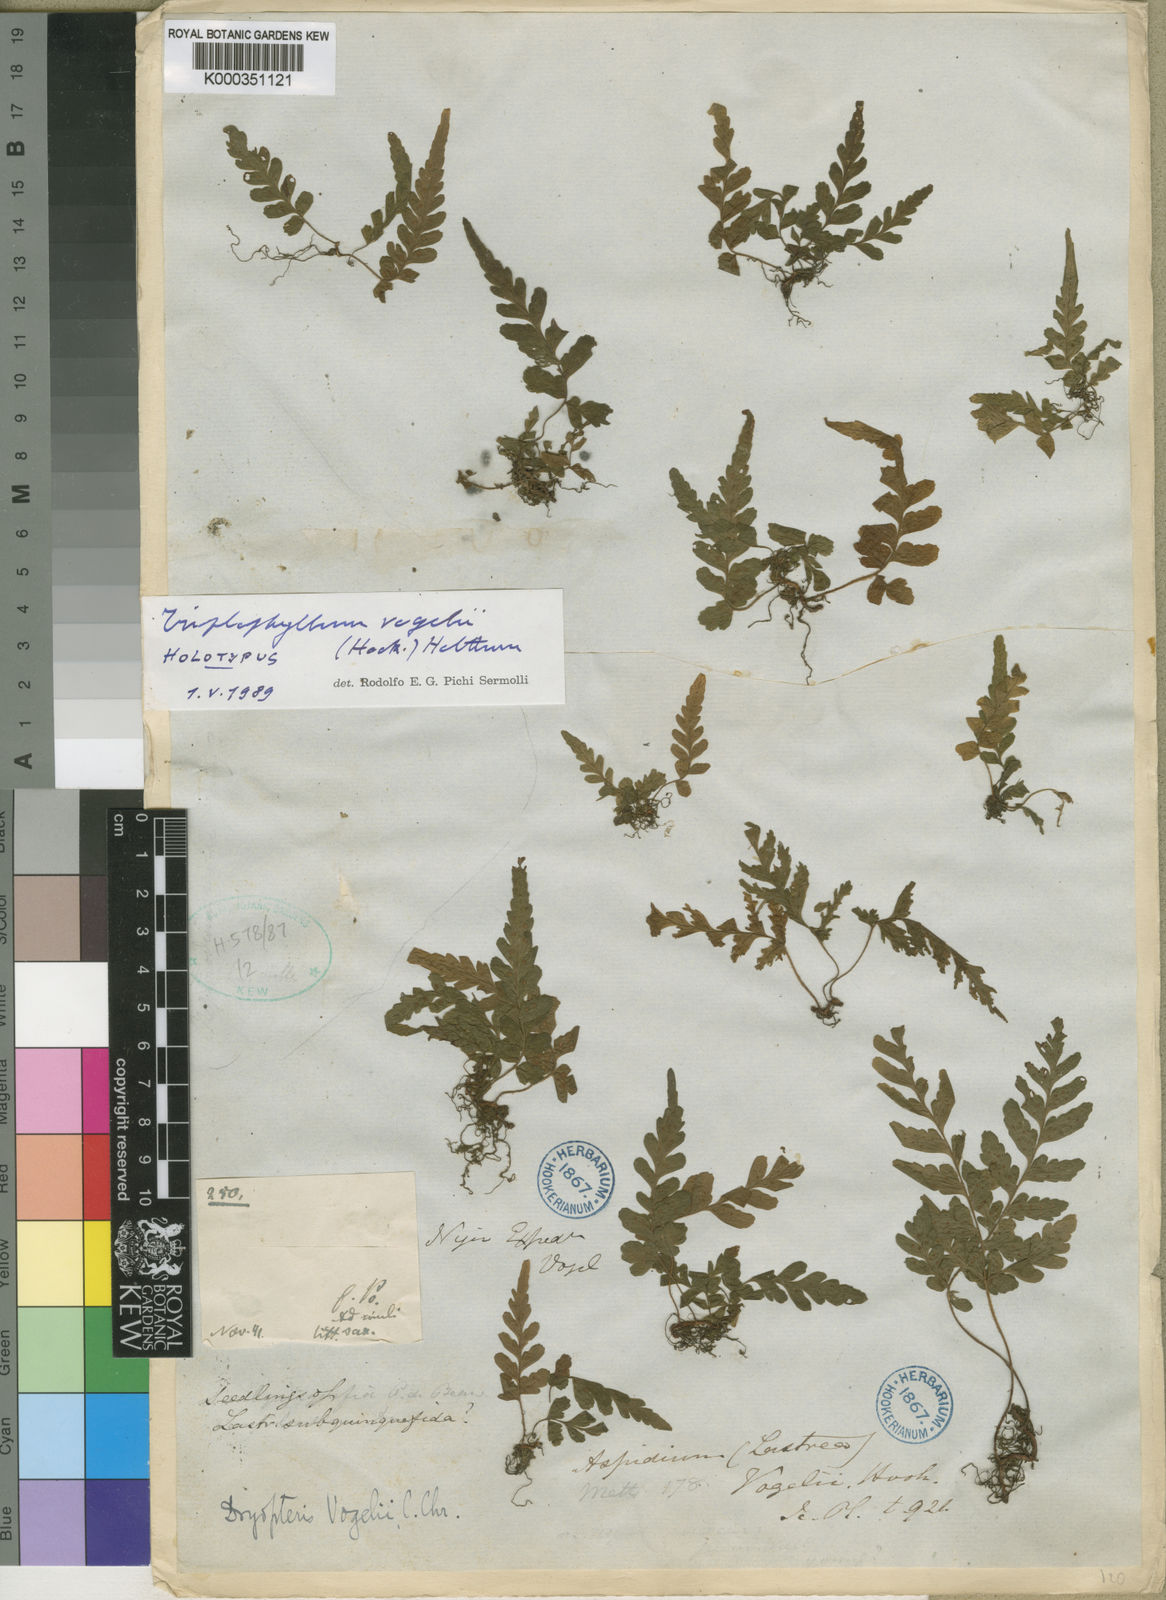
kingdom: Plantae
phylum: Tracheophyta
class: Polypodiopsida
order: Polypodiales
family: Tectariaceae
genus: Triplophyllum
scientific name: Triplophyllum vogelii
